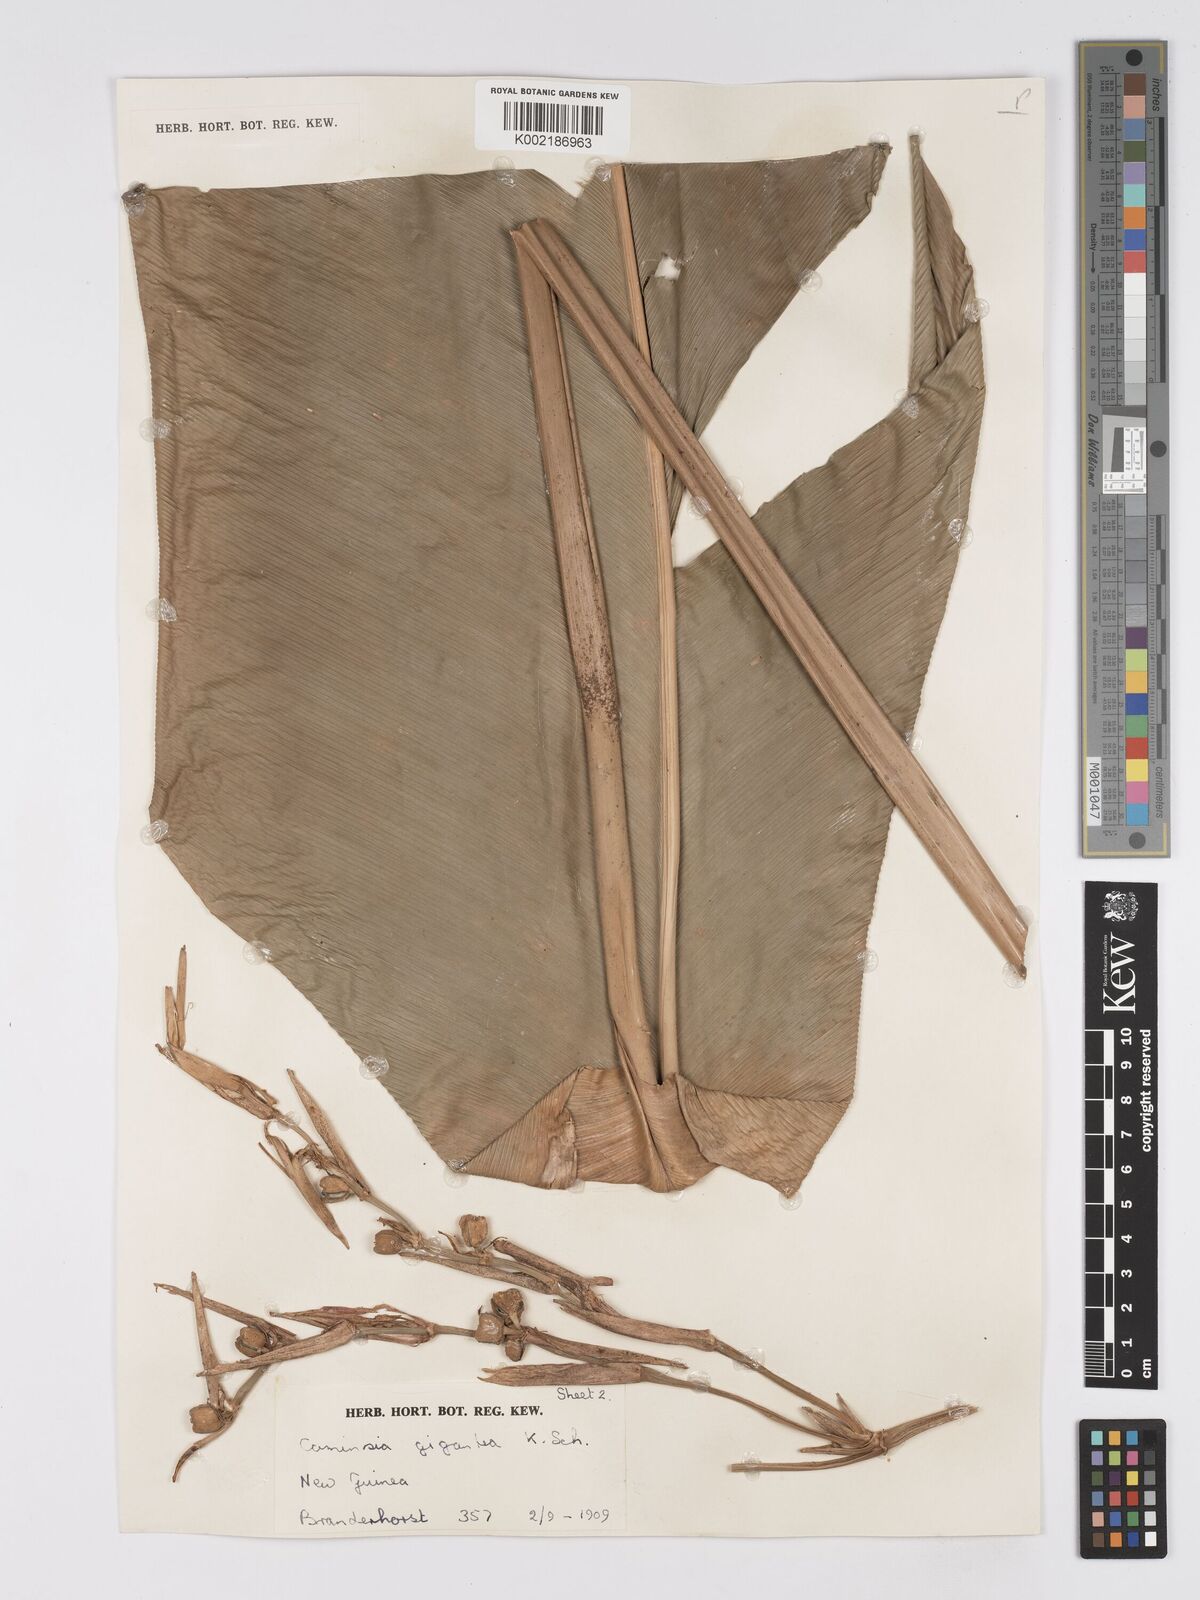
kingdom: Plantae
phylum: Tracheophyta
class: Liliopsida
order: Zingiberales
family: Marantaceae
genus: Phrynium
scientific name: Phrynium giganteum
